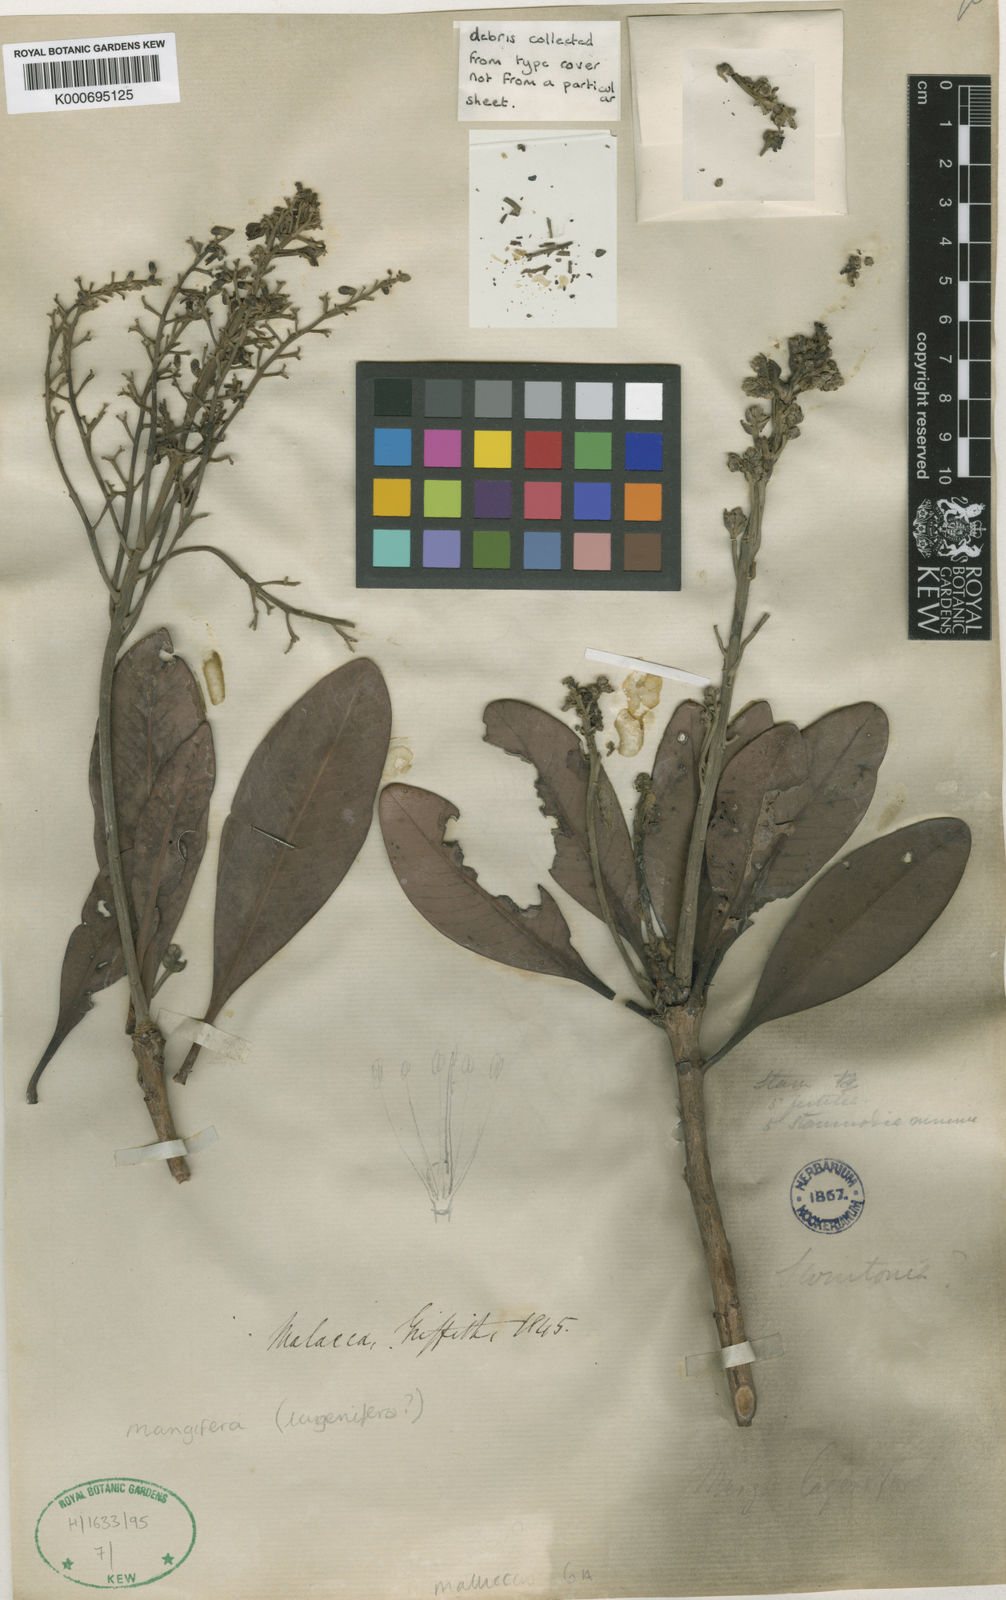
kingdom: Plantae
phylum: Tracheophyta
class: Magnoliopsida
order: Sapindales
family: Anacardiaceae
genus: Mangifera
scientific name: Mangifera lagenifera
